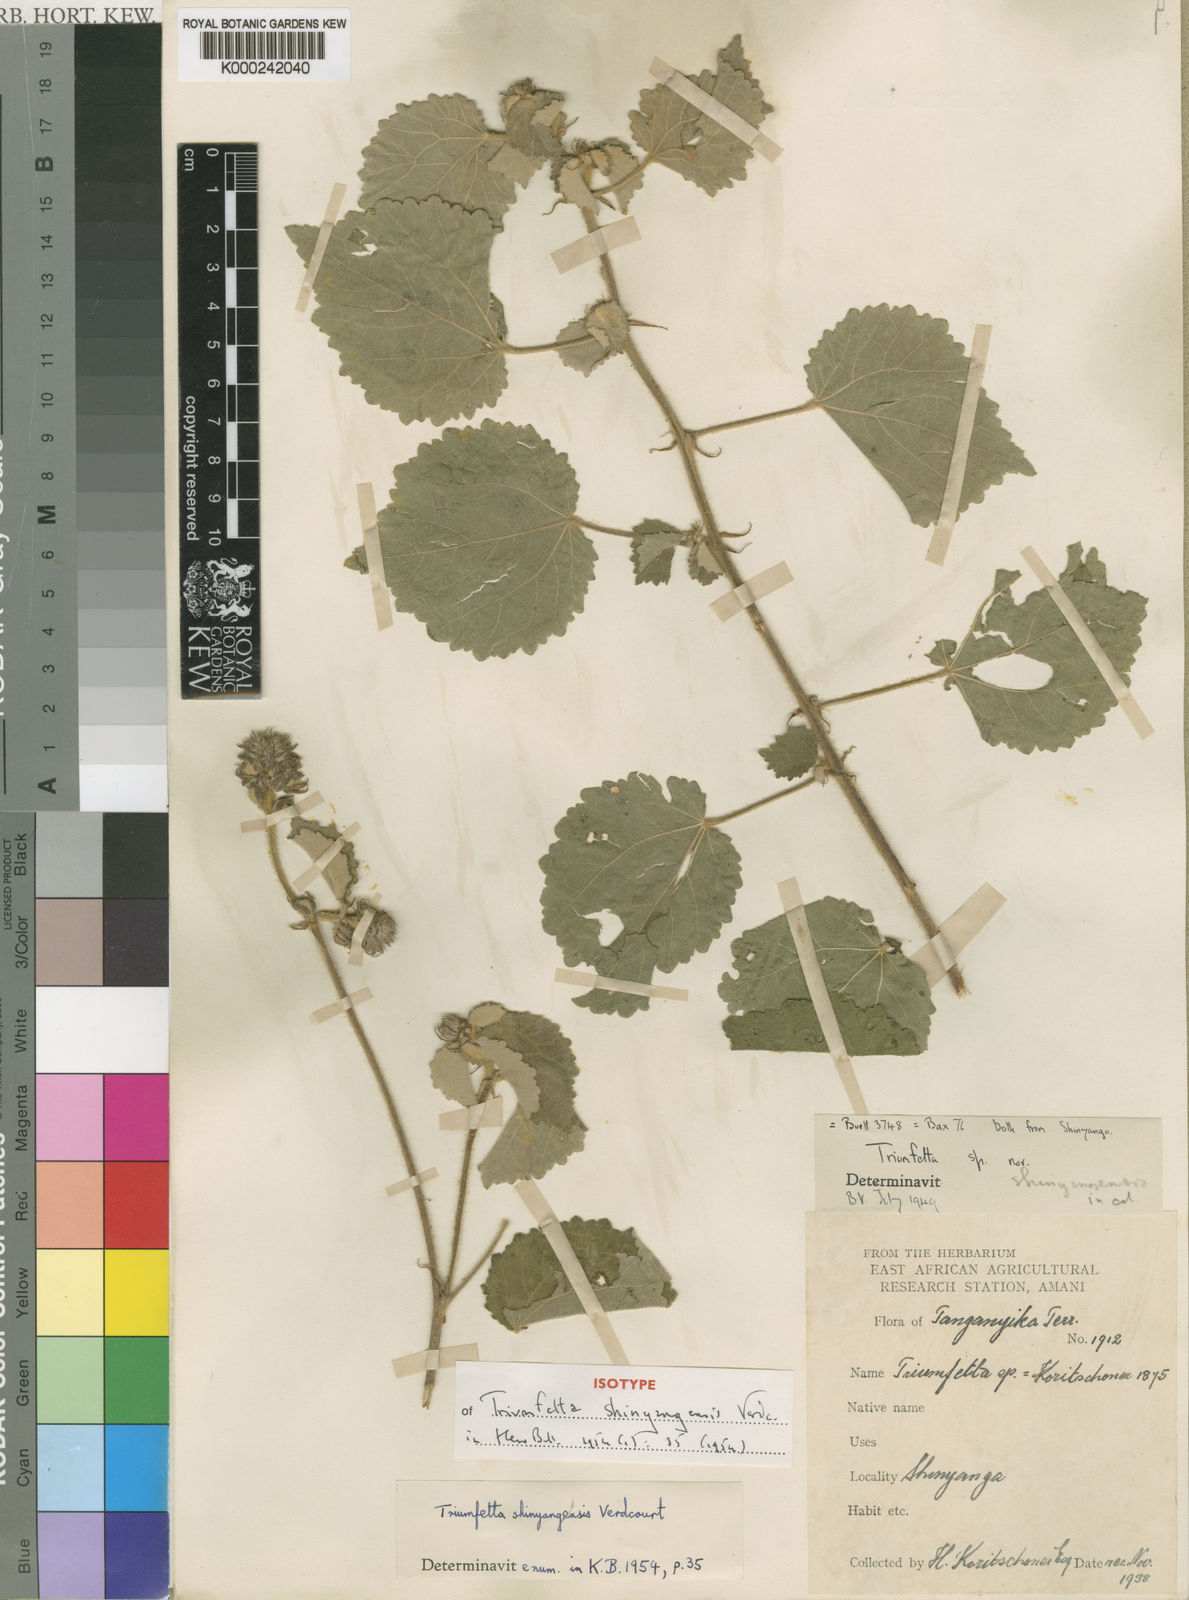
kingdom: Plantae
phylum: Tracheophyta
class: Magnoliopsida
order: Malvales
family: Malvaceae
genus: Triumfetta
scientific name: Triumfetta shinyangensis
